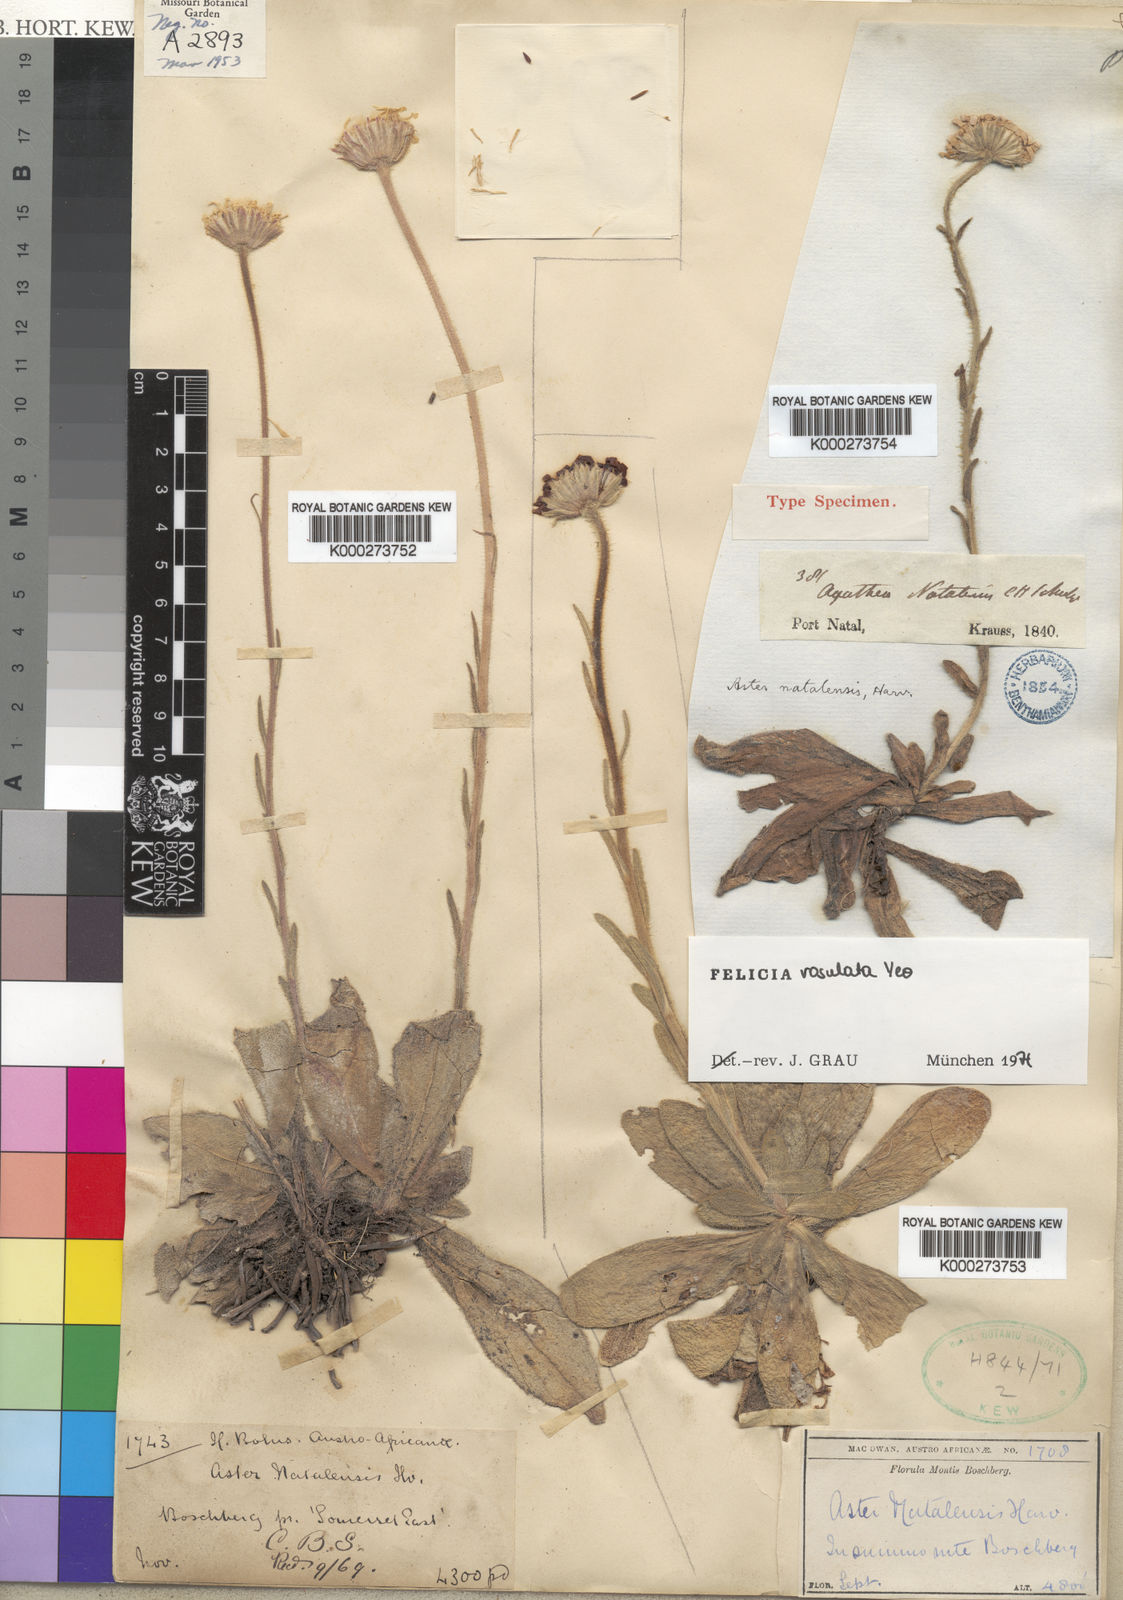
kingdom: Plantae
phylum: Tracheophyta
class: Magnoliopsida
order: Asterales
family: Asteraceae
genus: Felicia
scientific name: Felicia rosulata
